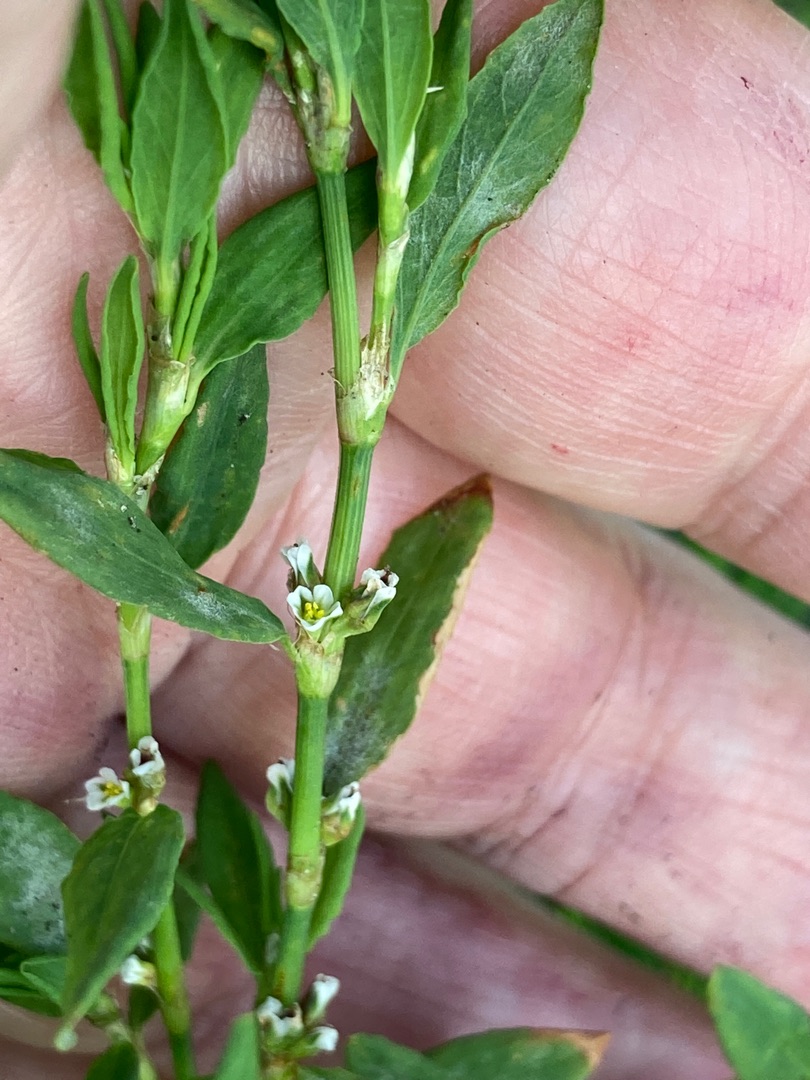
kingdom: Plantae
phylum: Tracheophyta
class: Magnoliopsida
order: Caryophyllales
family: Polygonaceae
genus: Polygonum
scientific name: Polygonum aviculare
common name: Vej-pileurt
